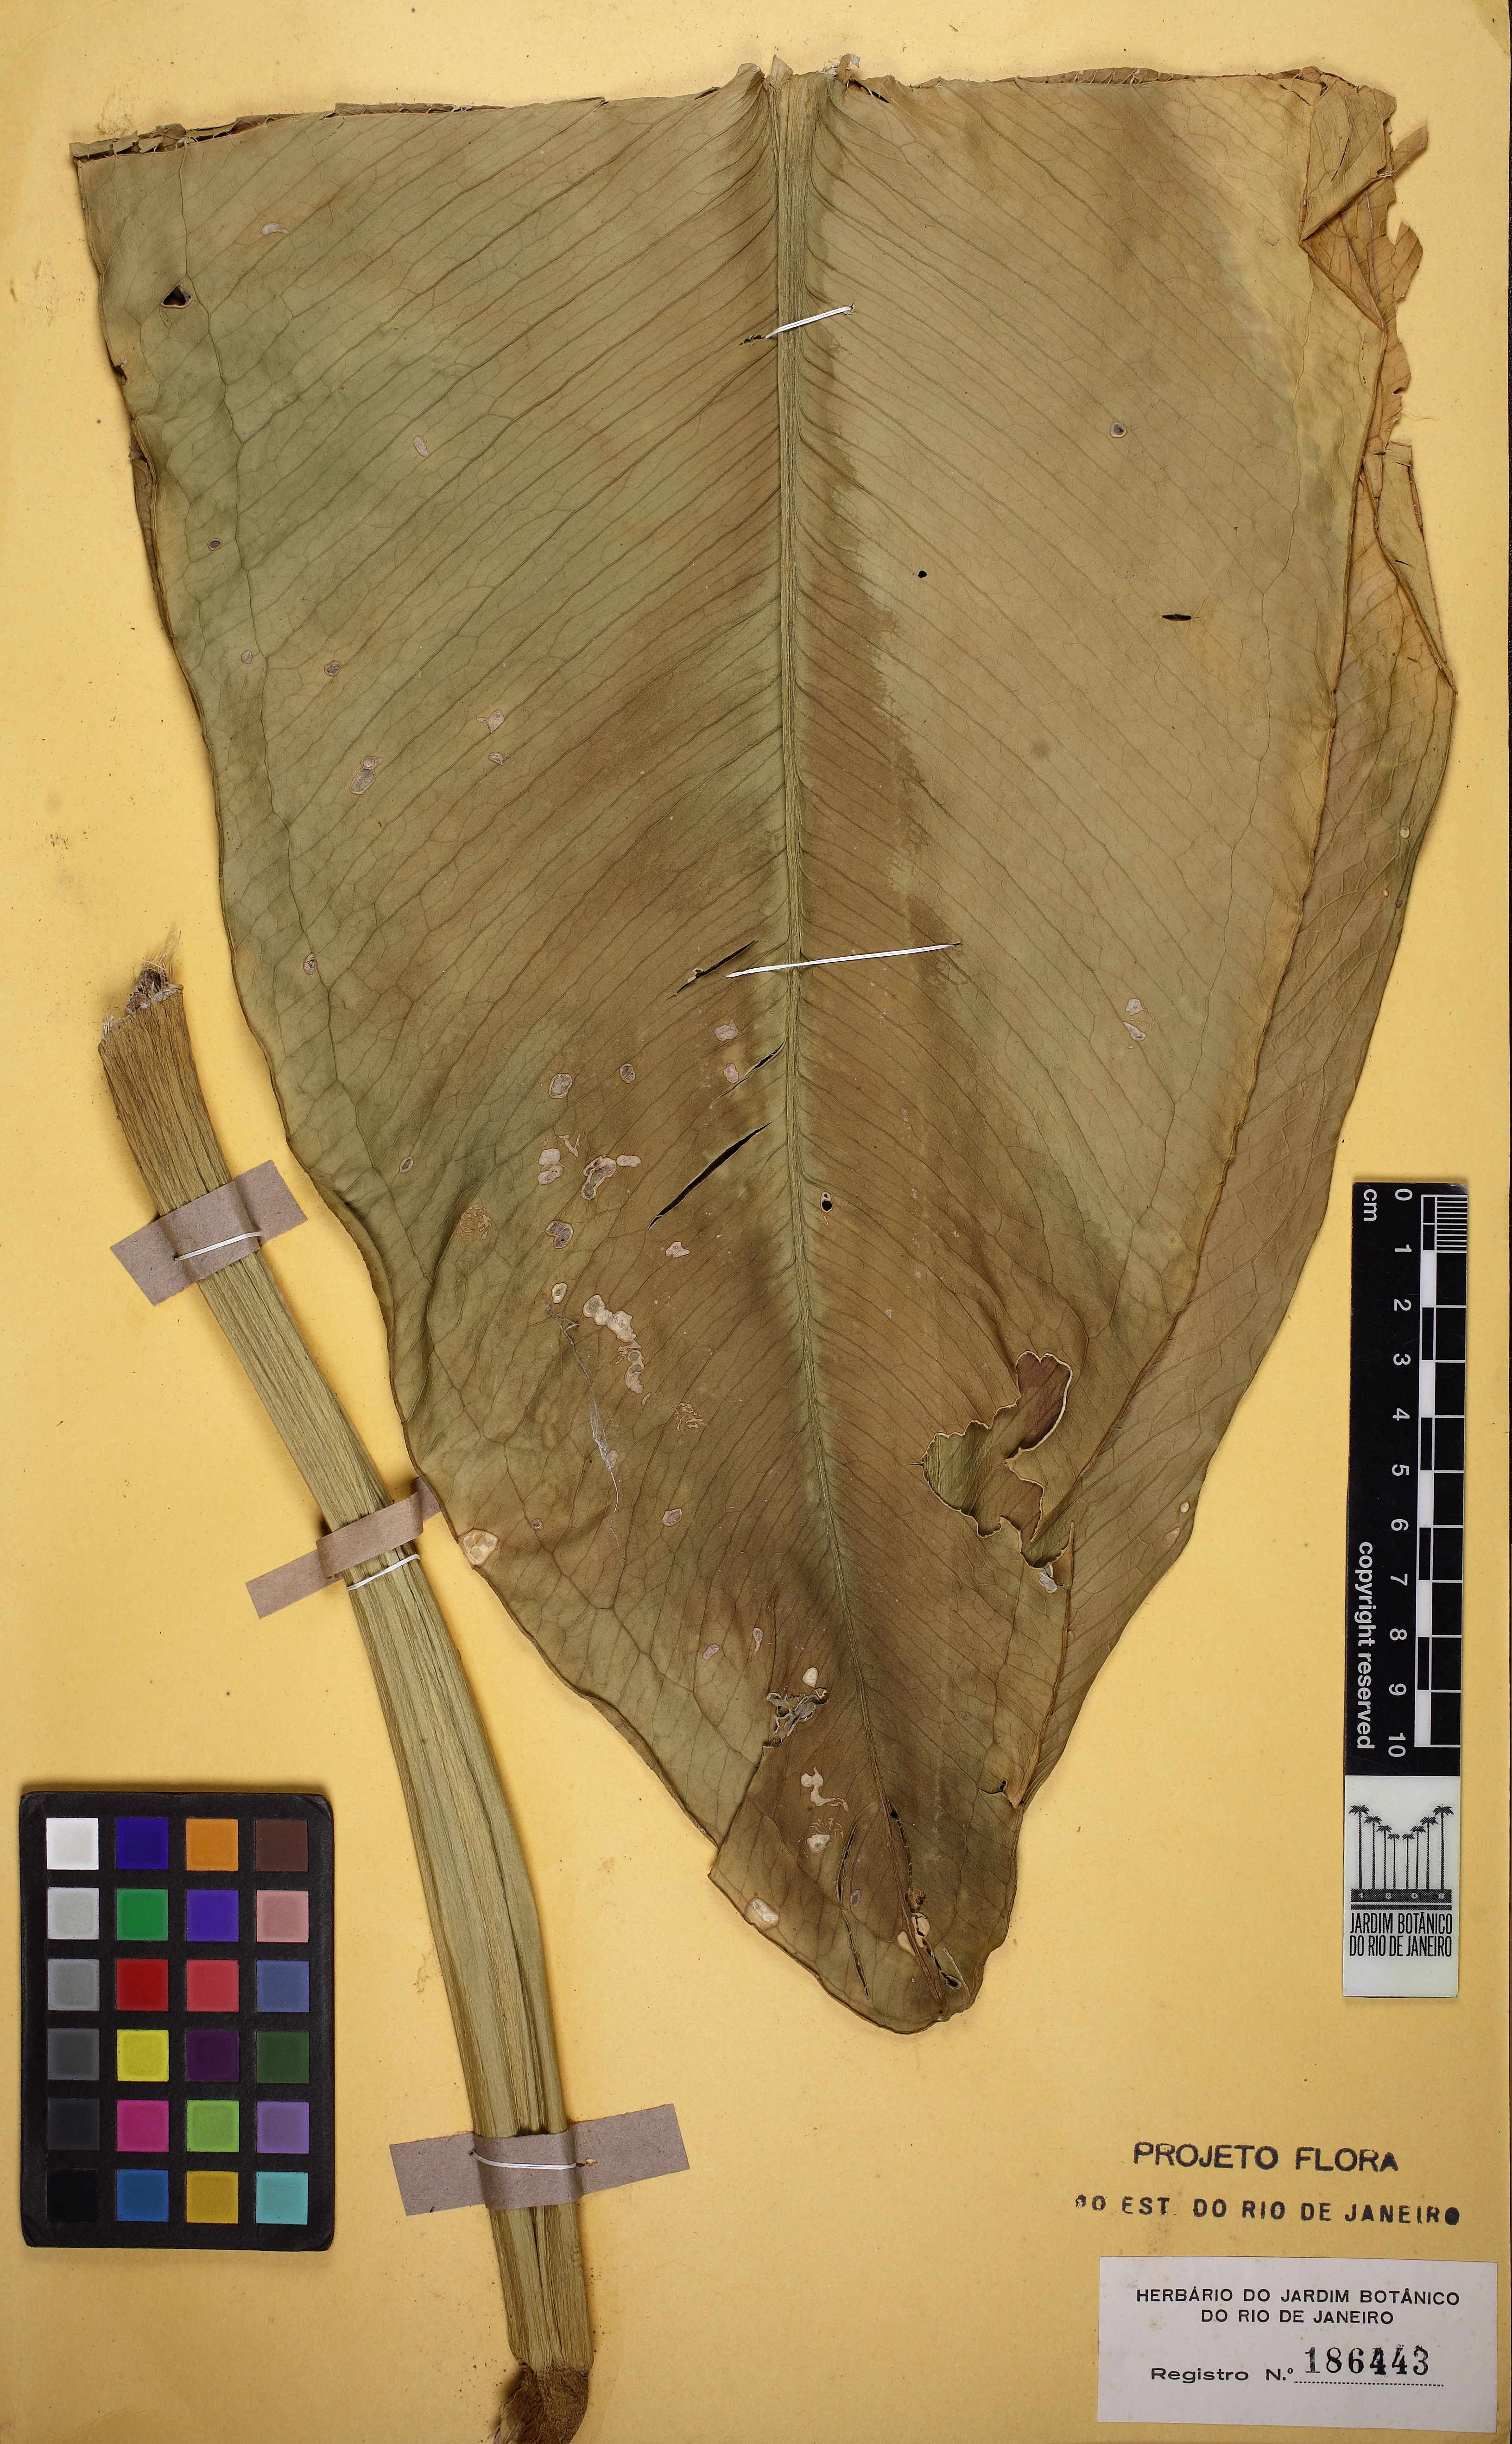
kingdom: Plantae
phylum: Tracheophyta
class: Liliopsida
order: Alismatales
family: Araceae
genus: Anthurium
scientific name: Anthurium coriaceum
